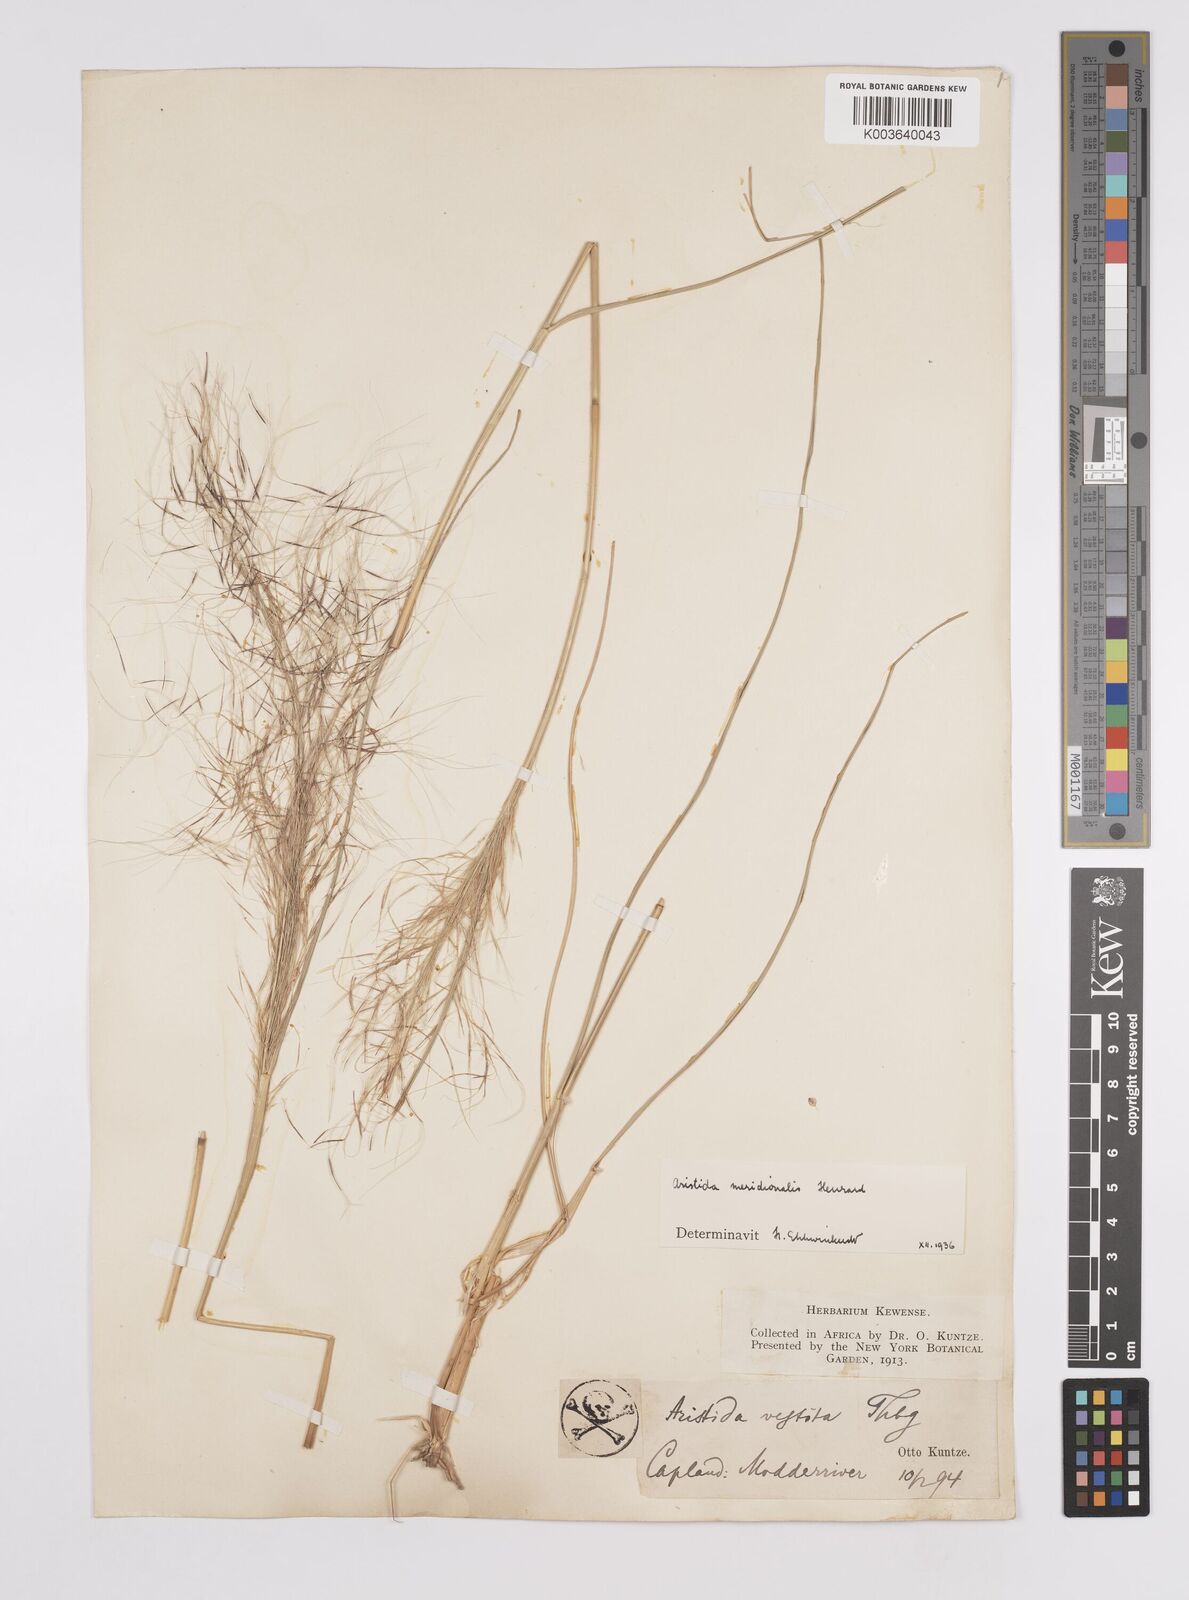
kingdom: Plantae
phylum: Tracheophyta
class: Liliopsida
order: Poales
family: Poaceae
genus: Aristida
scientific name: Aristida meridionalis
